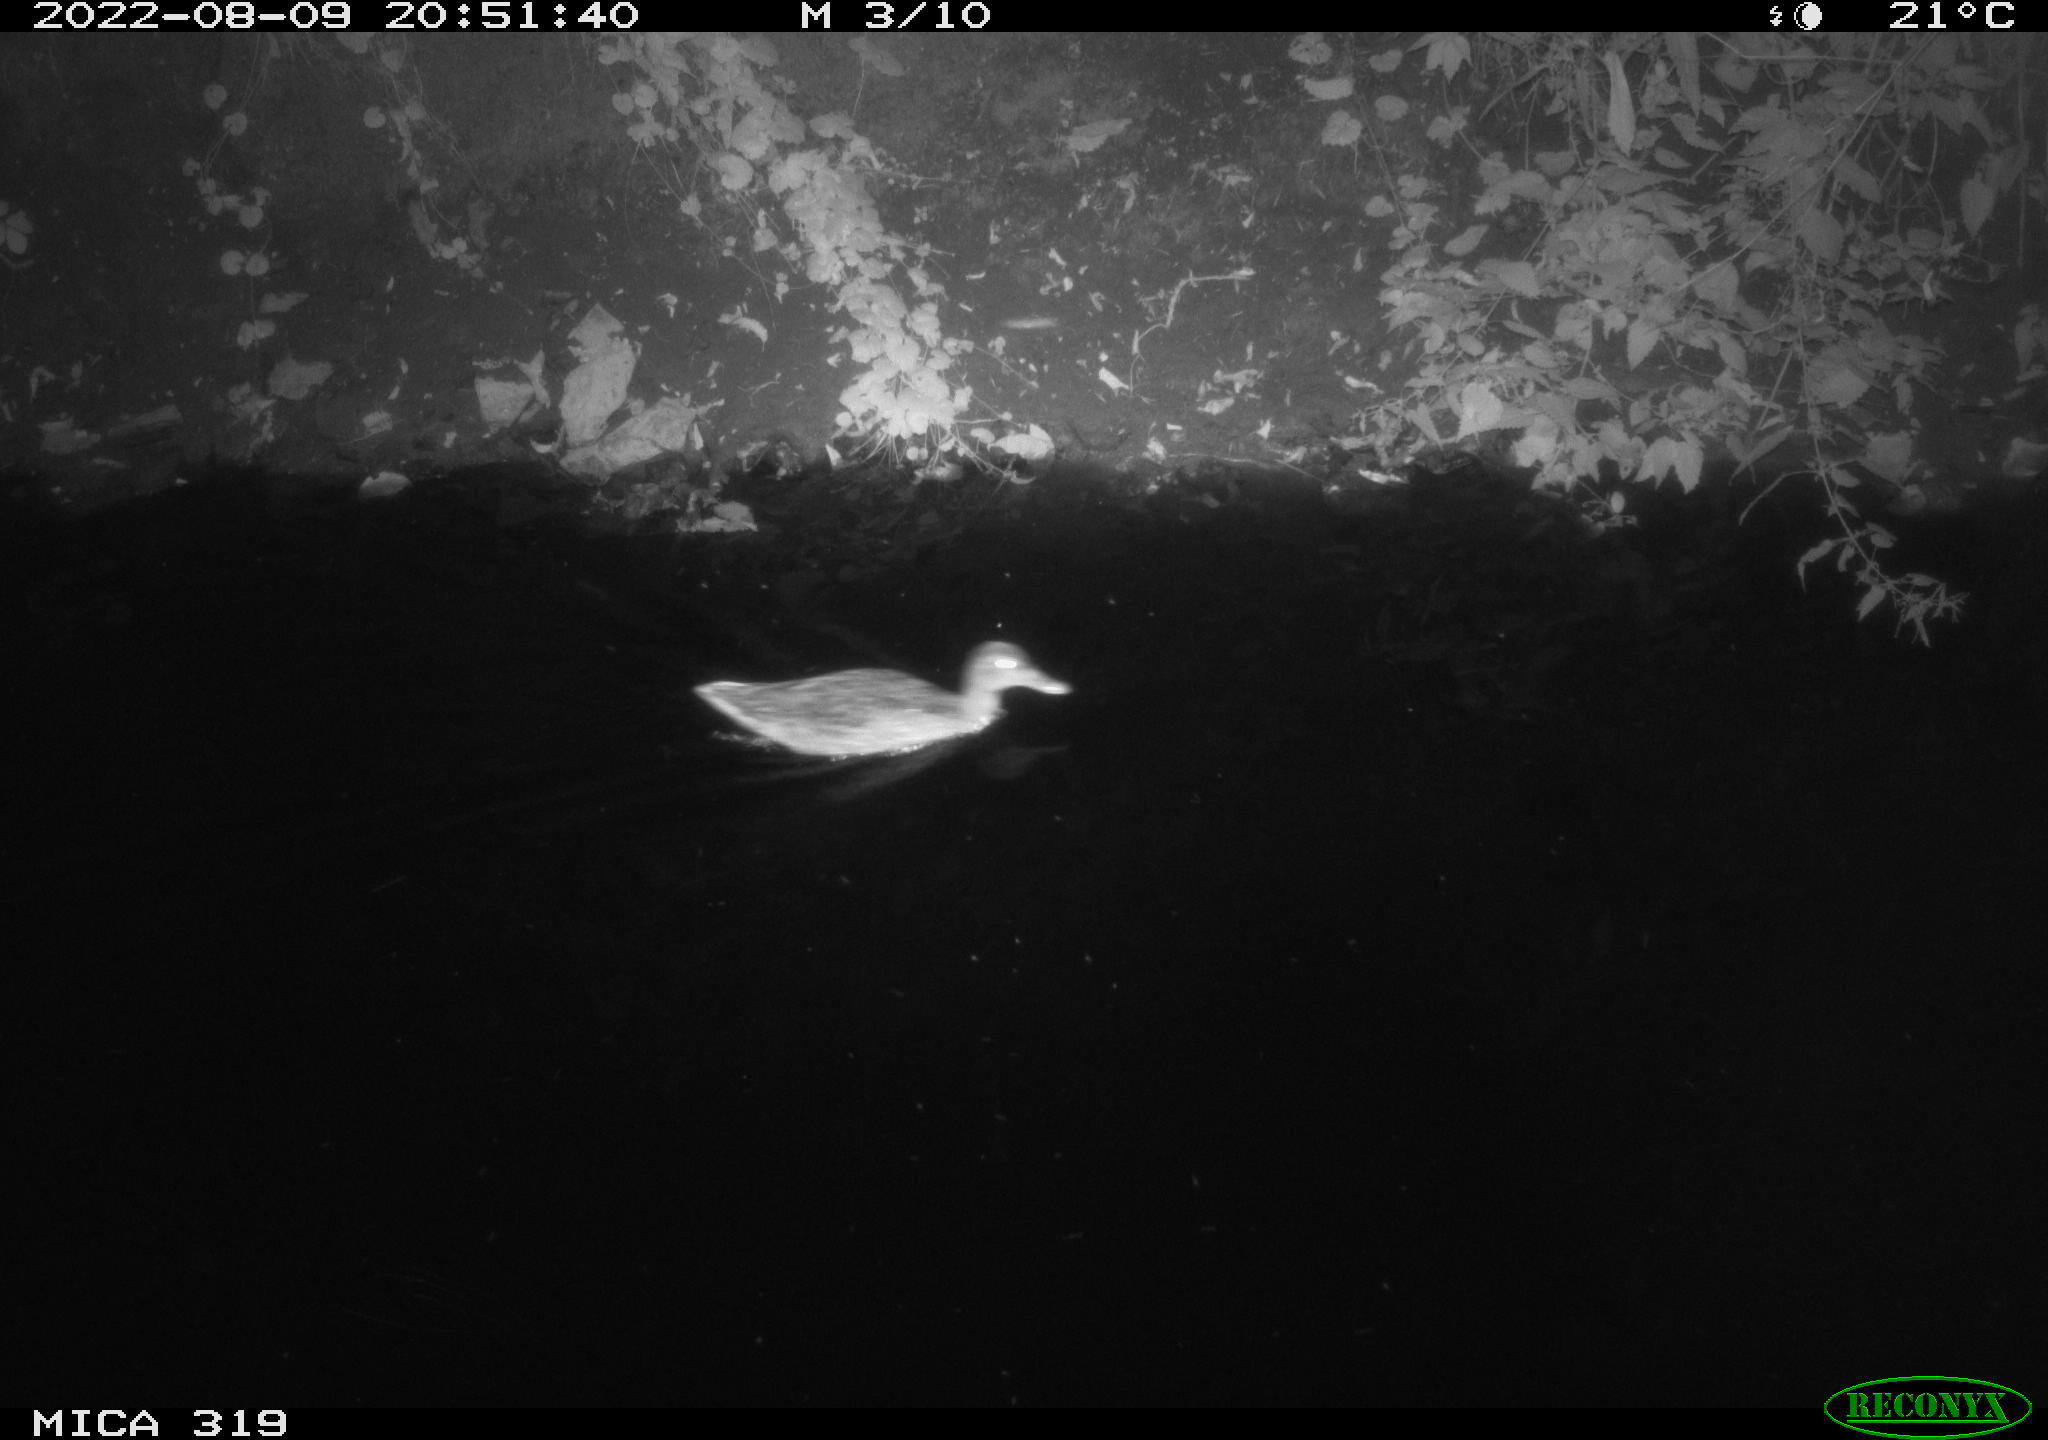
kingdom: Animalia
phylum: Chordata
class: Aves
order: Anseriformes
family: Anatidae
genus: Anas
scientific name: Anas
